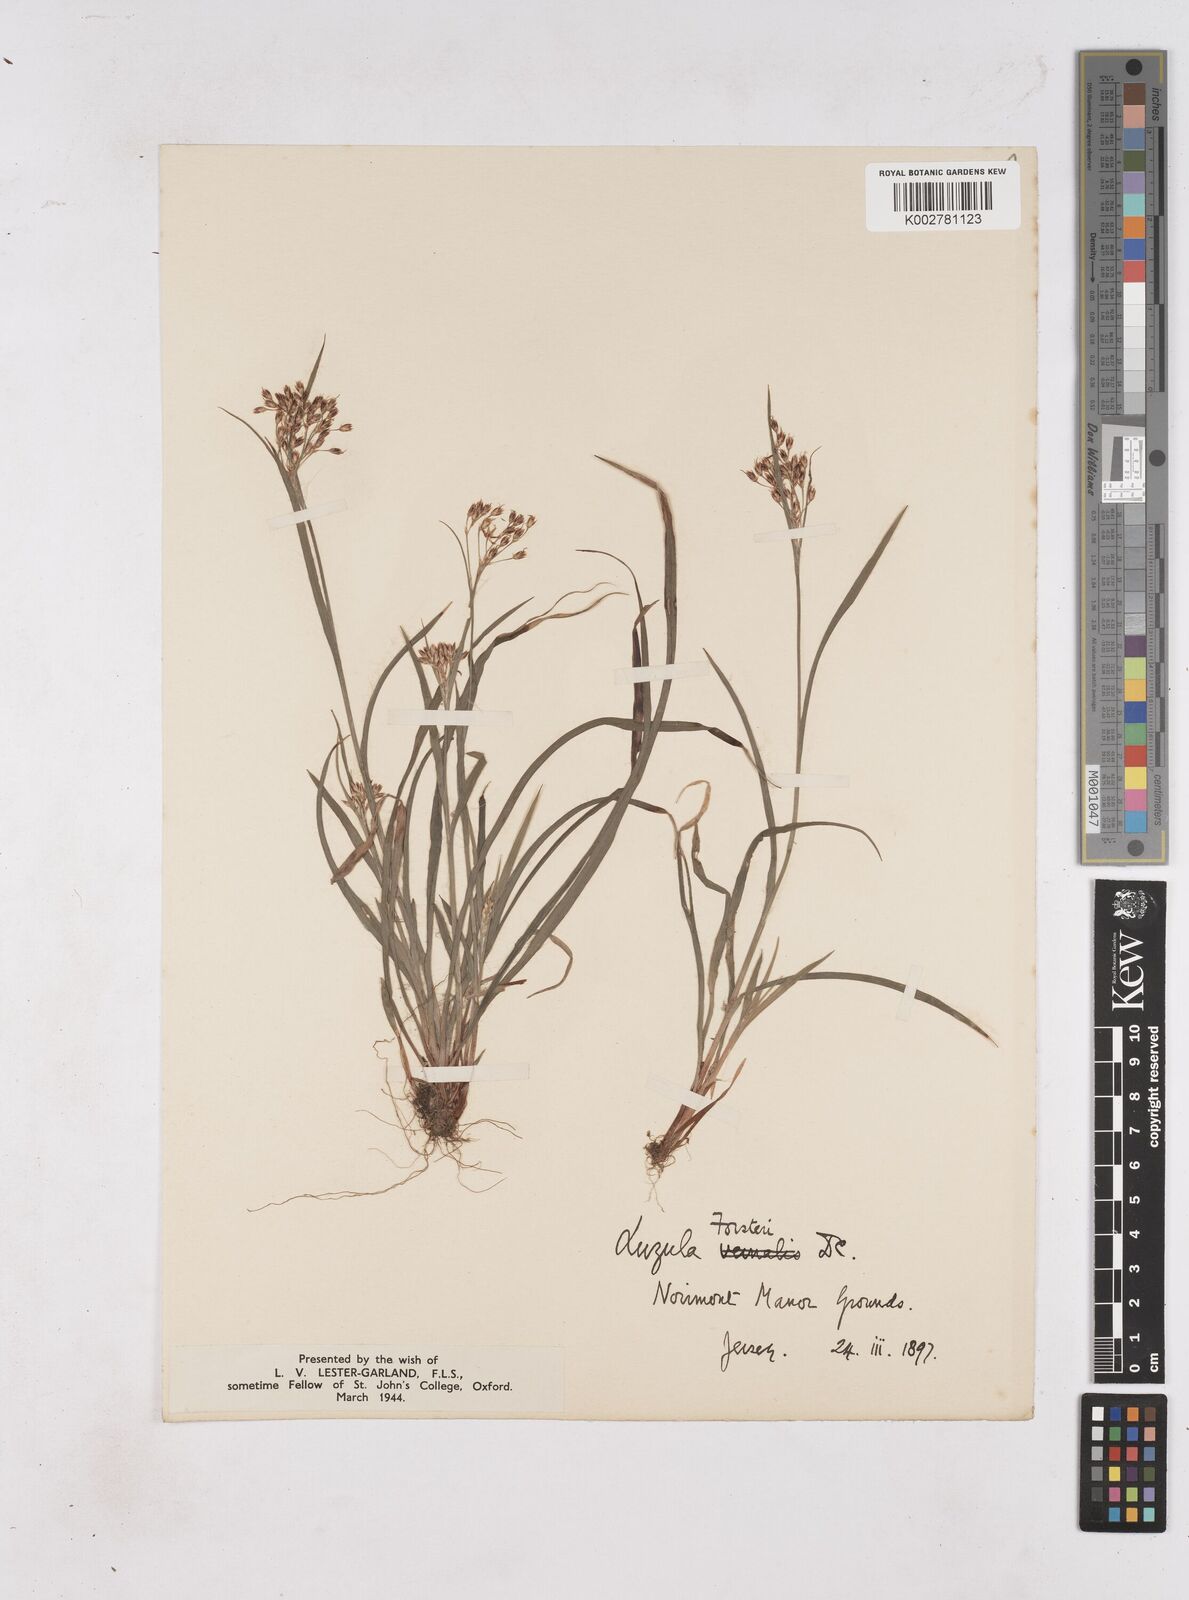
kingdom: Plantae
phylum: Tracheophyta
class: Liliopsida
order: Poales
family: Juncaceae
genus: Luzula
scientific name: Luzula forsteri
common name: Southern wood-rush
